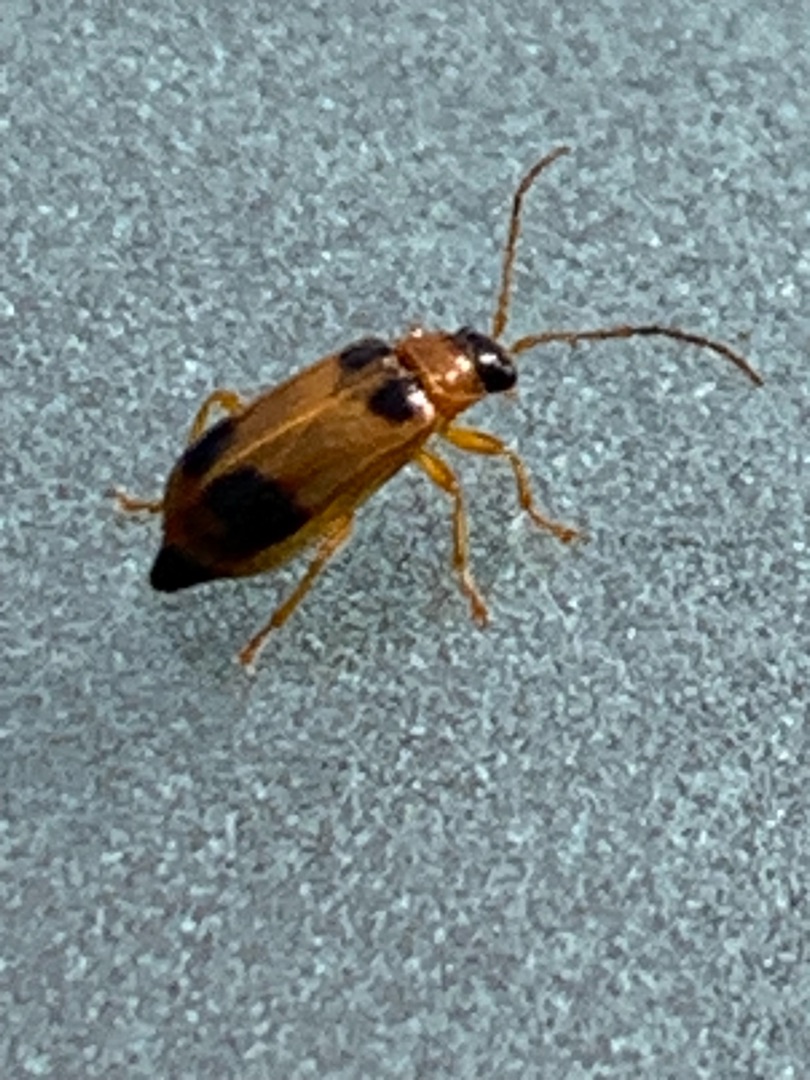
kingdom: Animalia
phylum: Arthropoda
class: Insecta
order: Coleoptera
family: Chrysomelidae
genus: Phyllobrotica
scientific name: Phyllobrotica quadrimaculata
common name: Sortplettet bladbille
